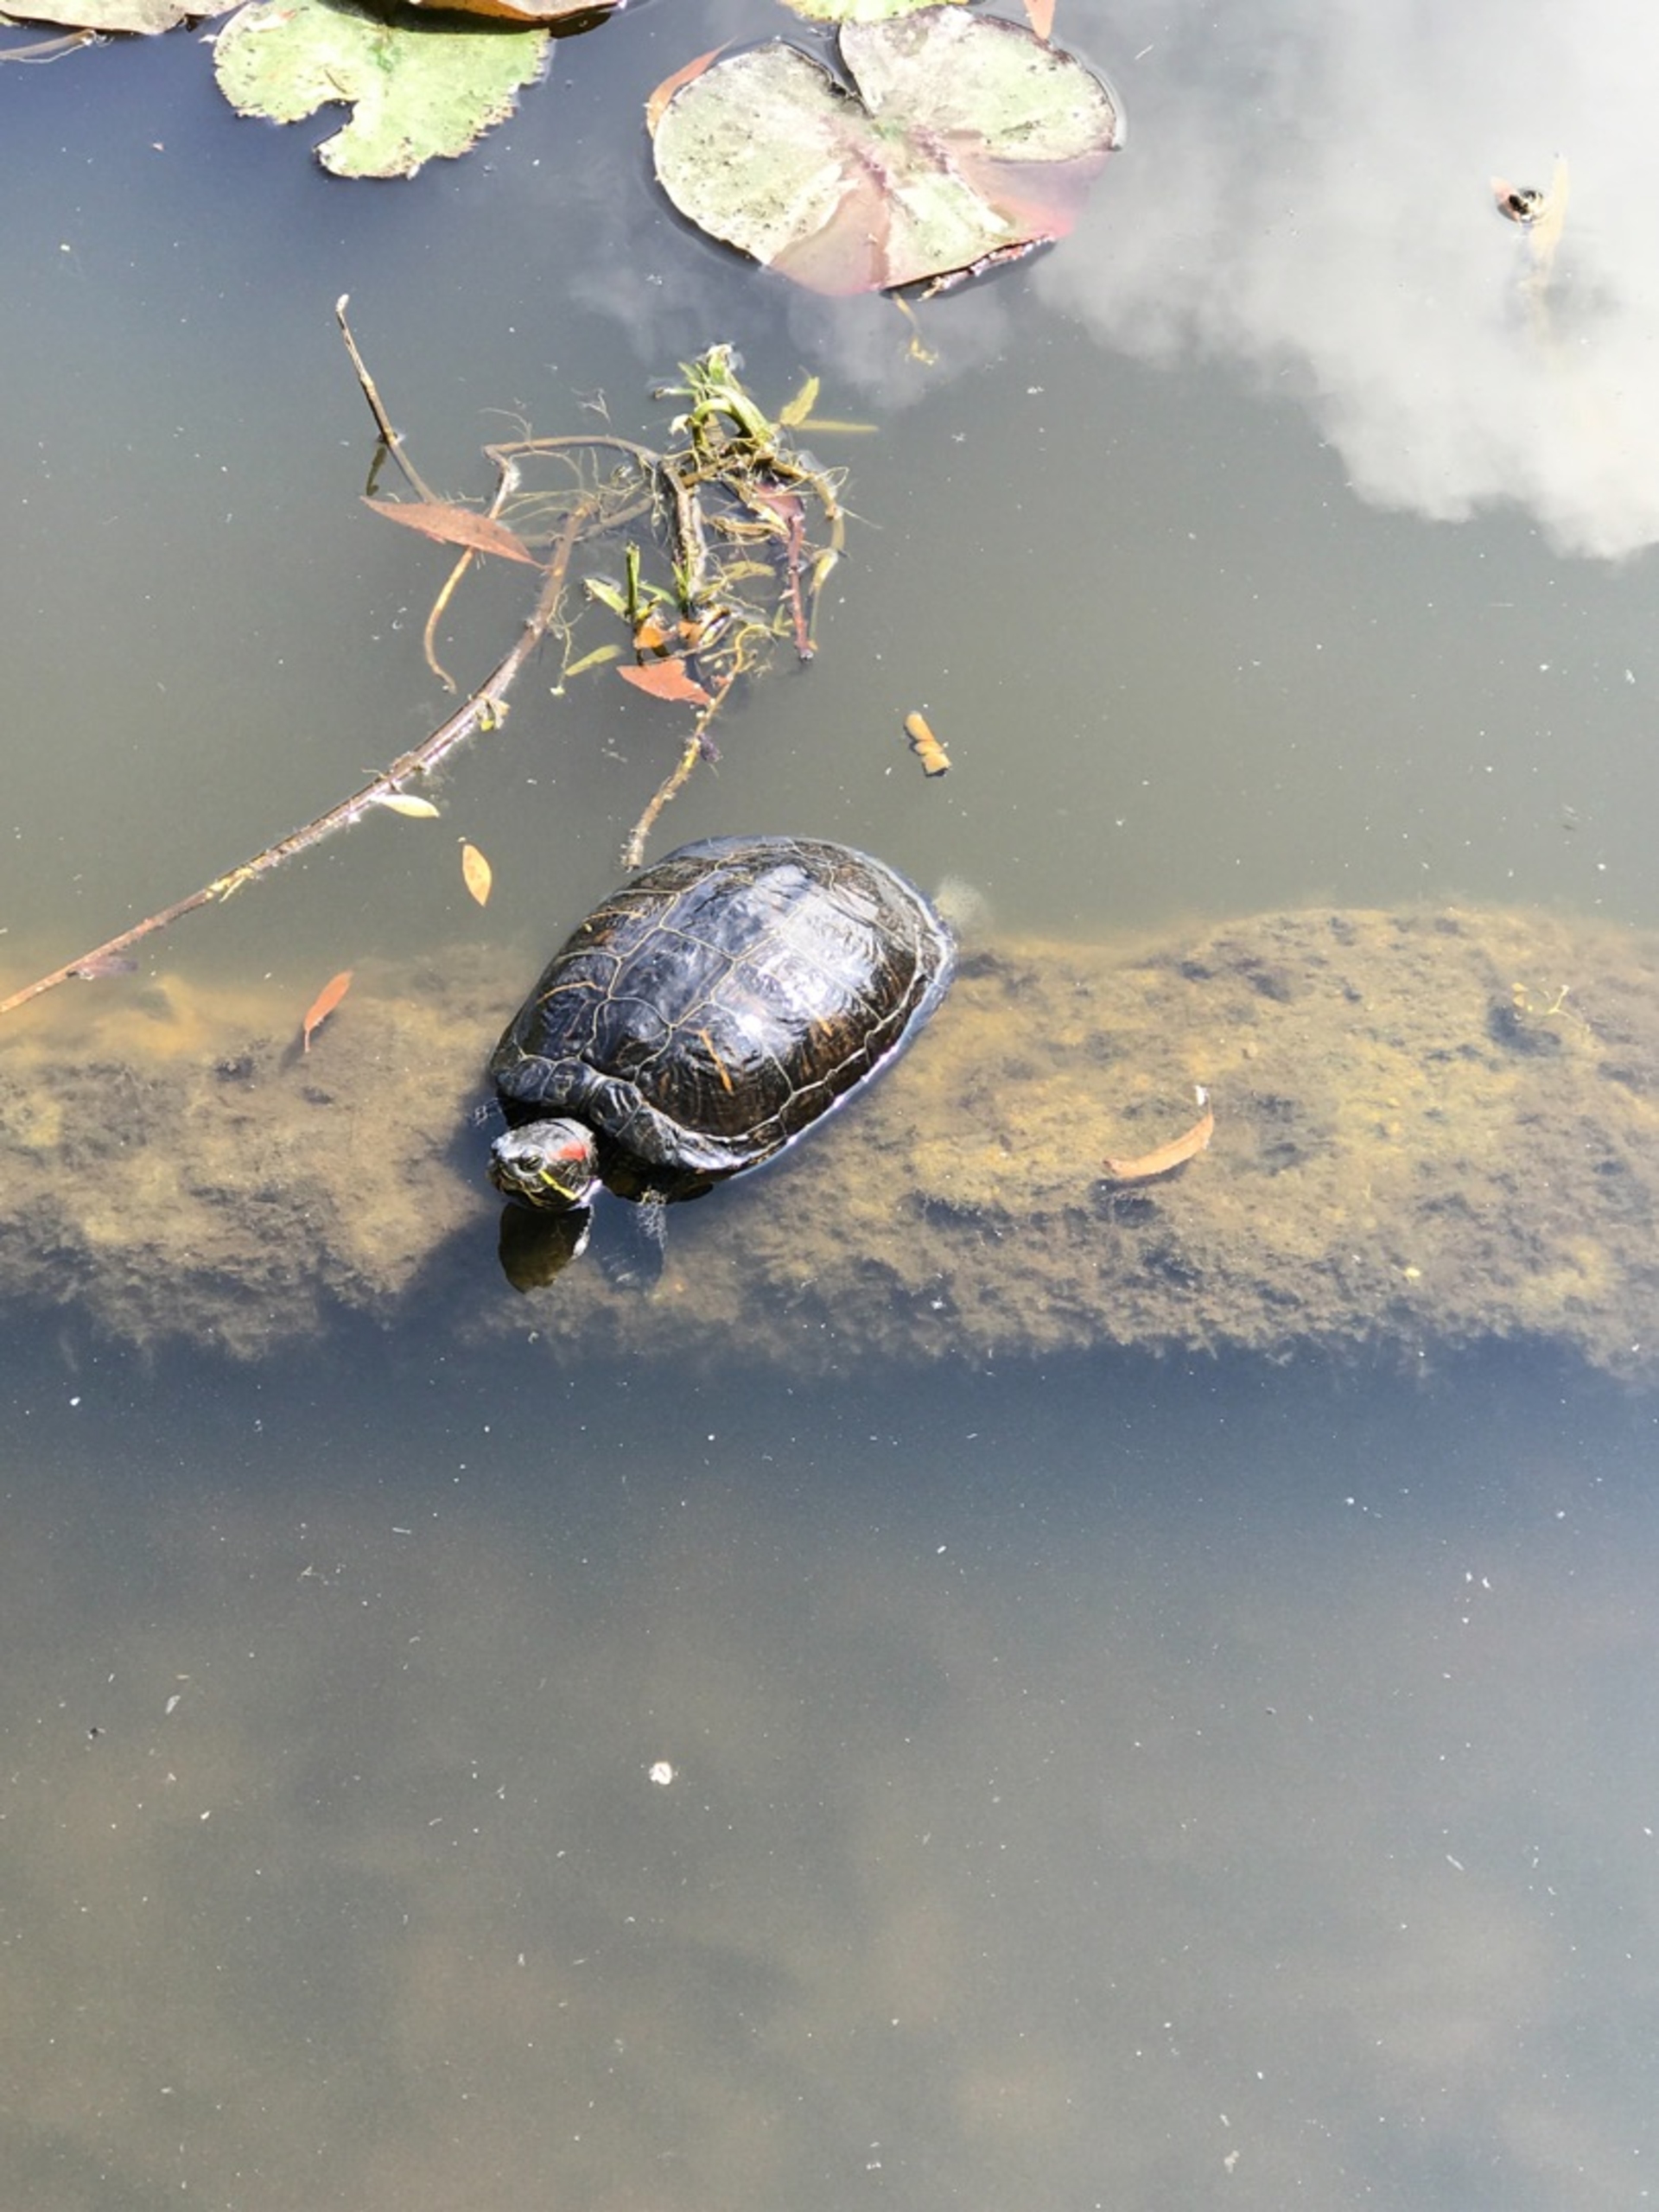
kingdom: Animalia
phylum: Chordata
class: Testudines
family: Emydidae
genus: Trachemys
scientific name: Trachemys scripta
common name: Rødøret terrapin
